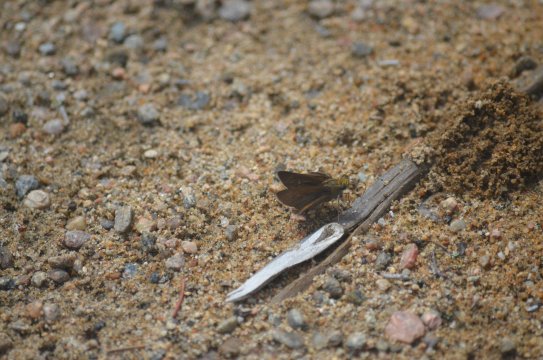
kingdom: Animalia
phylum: Arthropoda
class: Insecta
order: Lepidoptera
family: Hesperiidae
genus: Euphyes
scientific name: Euphyes vestris
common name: Dun Skipper
